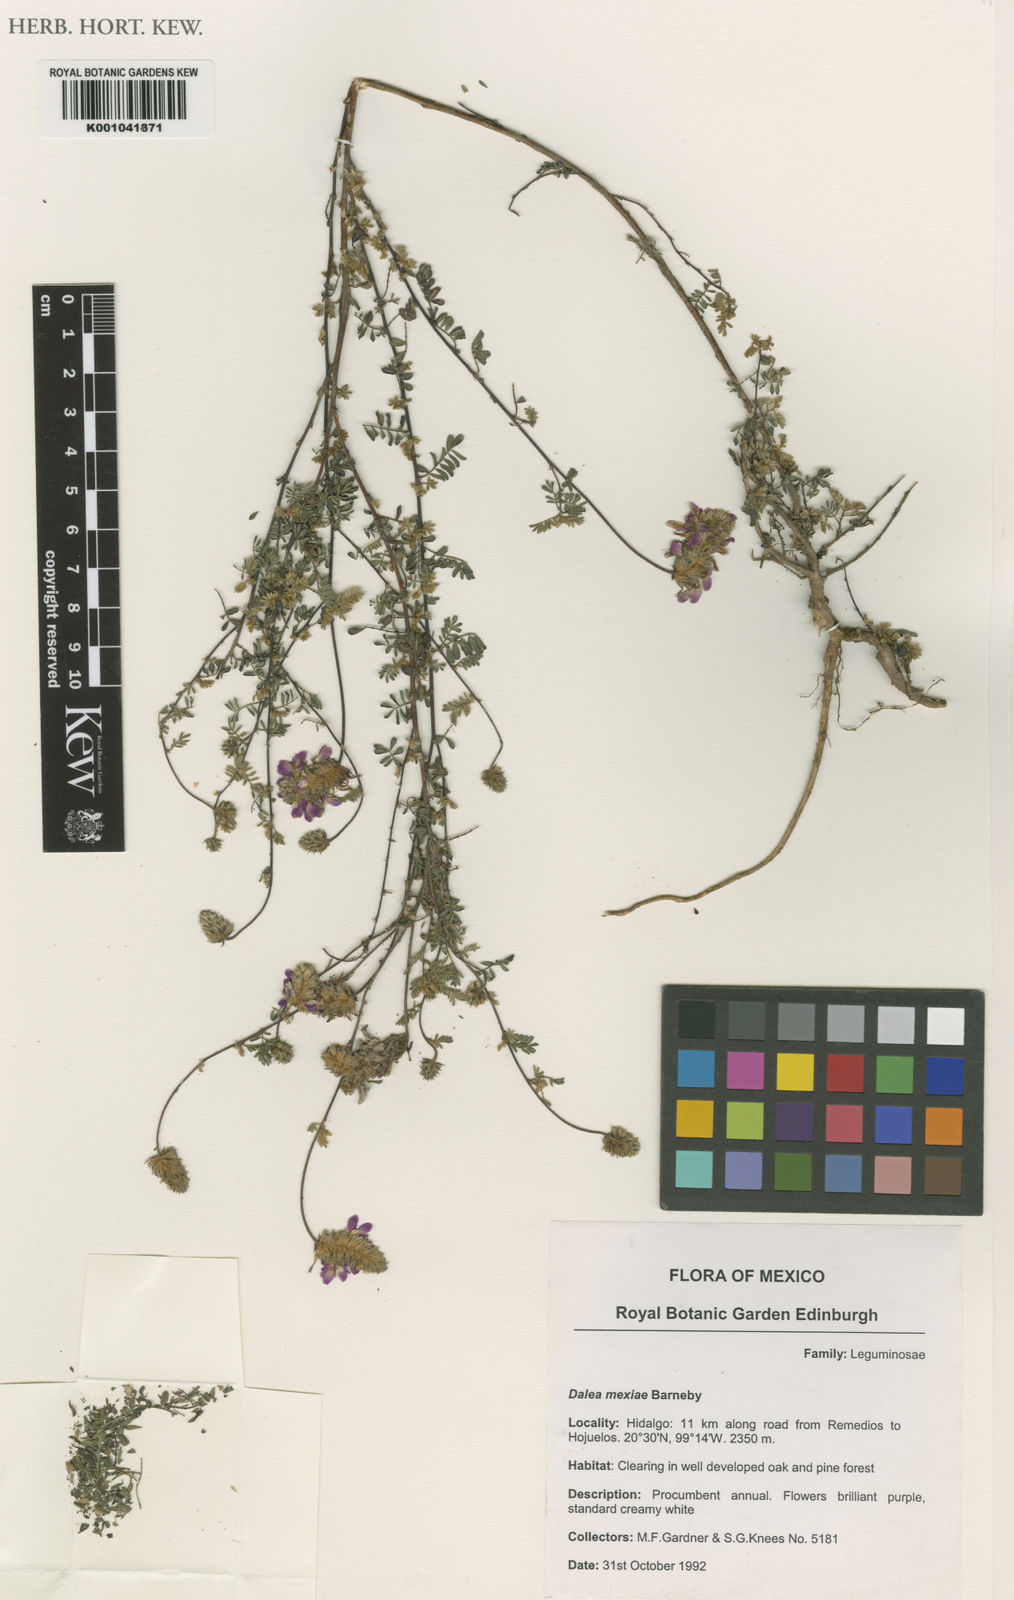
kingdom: Plantae
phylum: Tracheophyta
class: Magnoliopsida
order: Fabales
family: Fabaceae
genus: Dalea
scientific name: Dalea mexiae
